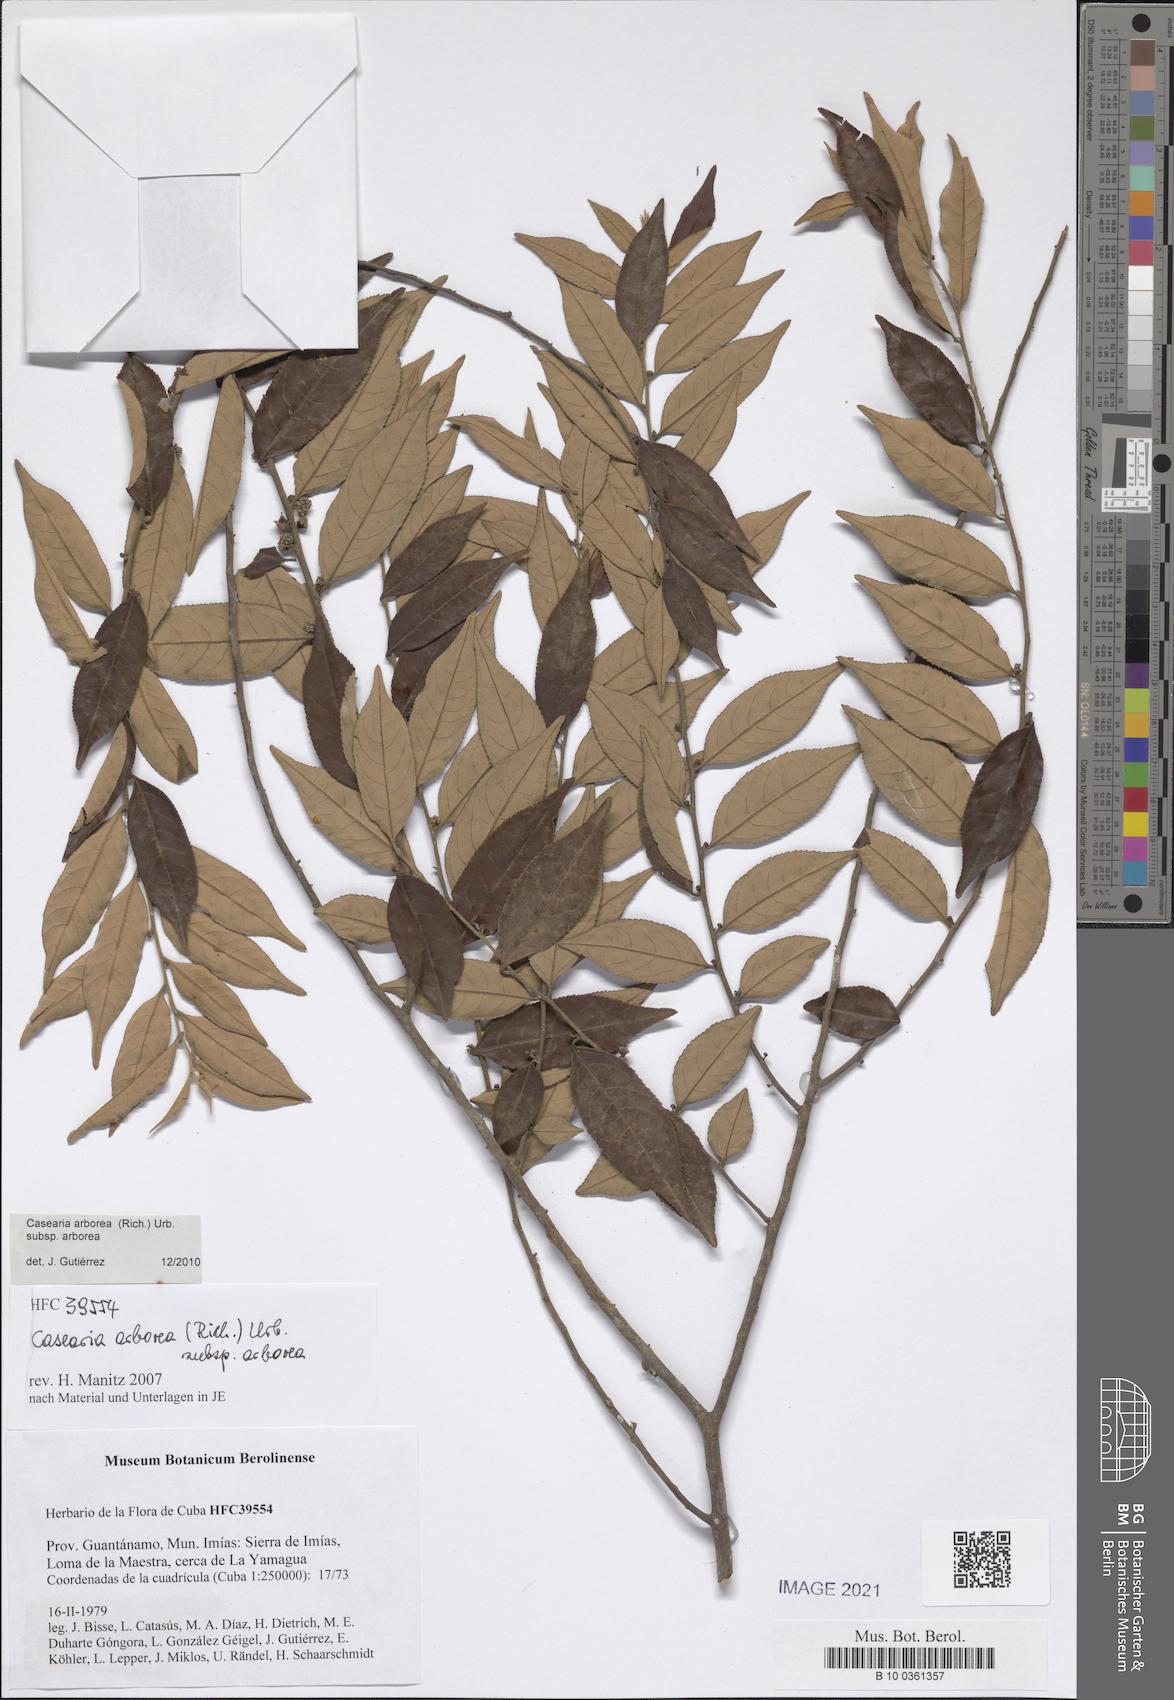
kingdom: Plantae
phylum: Tracheophyta
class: Magnoliopsida
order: Malpighiales
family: Salicaceae
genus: Casearia
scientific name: Casearia arborea
